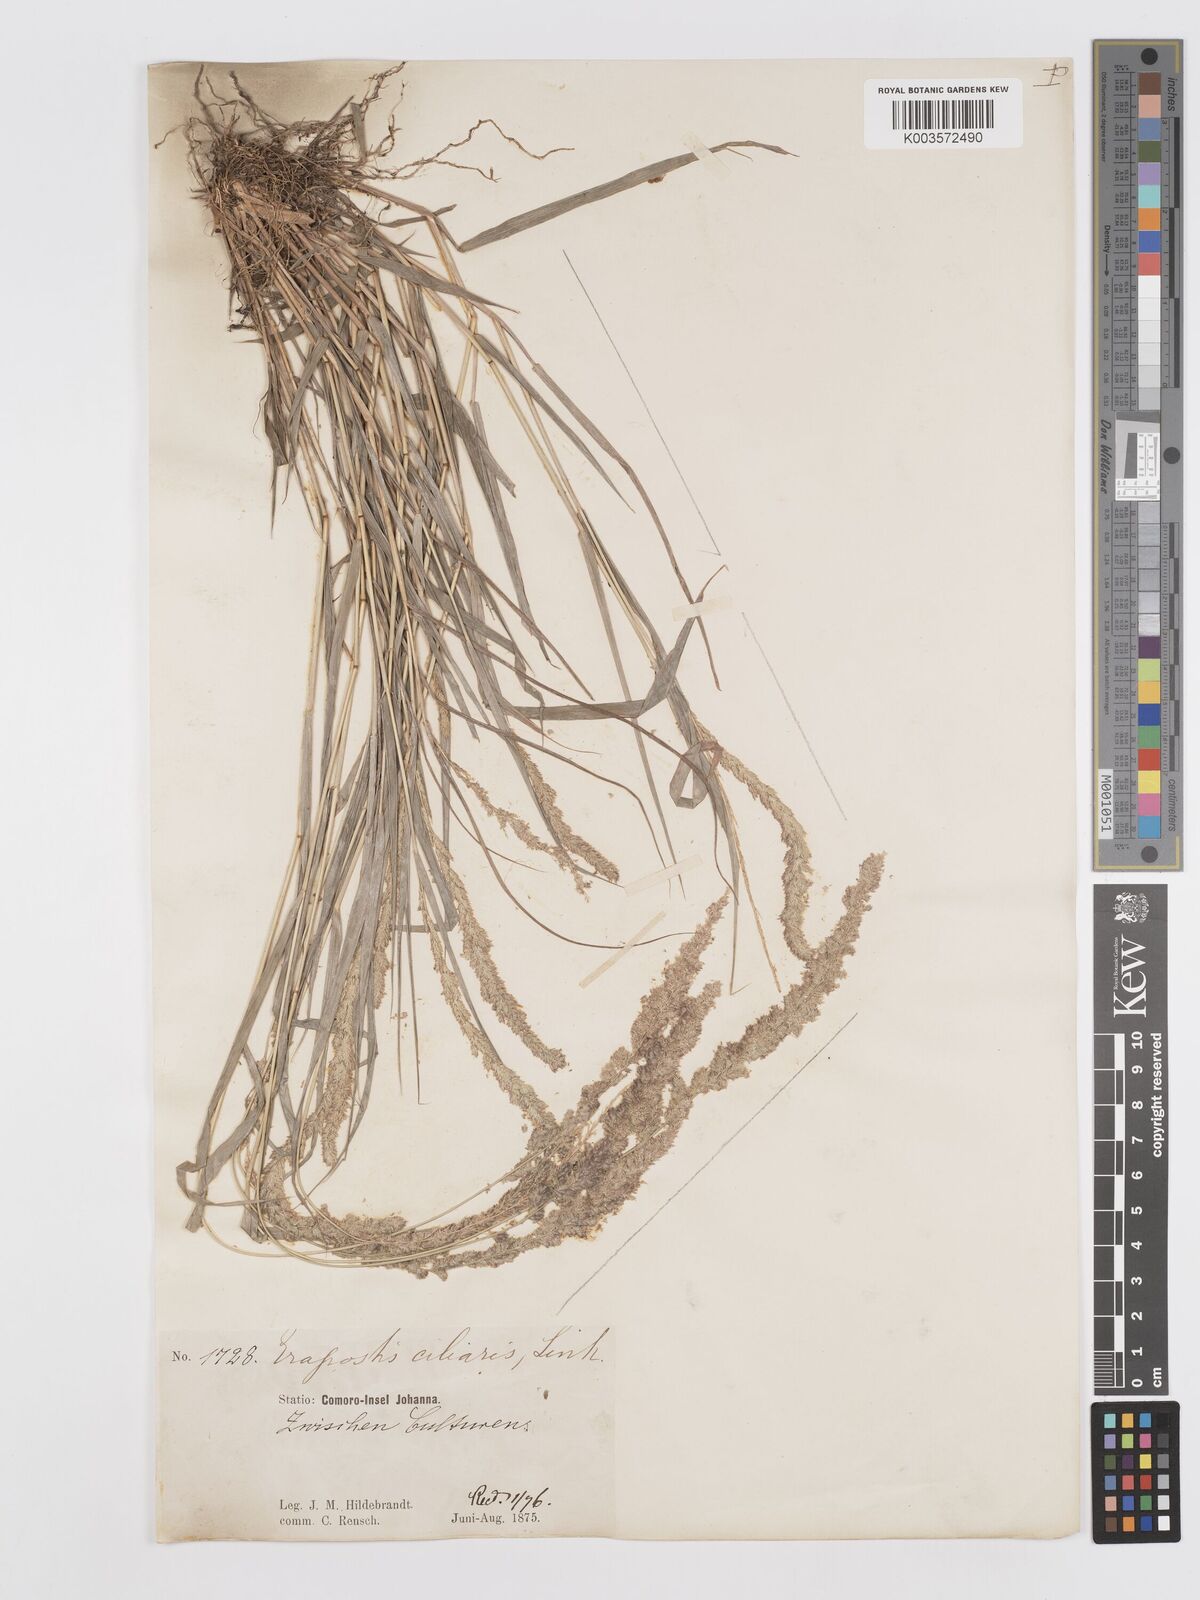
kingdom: Plantae
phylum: Tracheophyta
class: Liliopsida
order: Poales
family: Poaceae
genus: Eragrostis
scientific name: Eragrostis ciliaris
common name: Gophertail lovegrass
